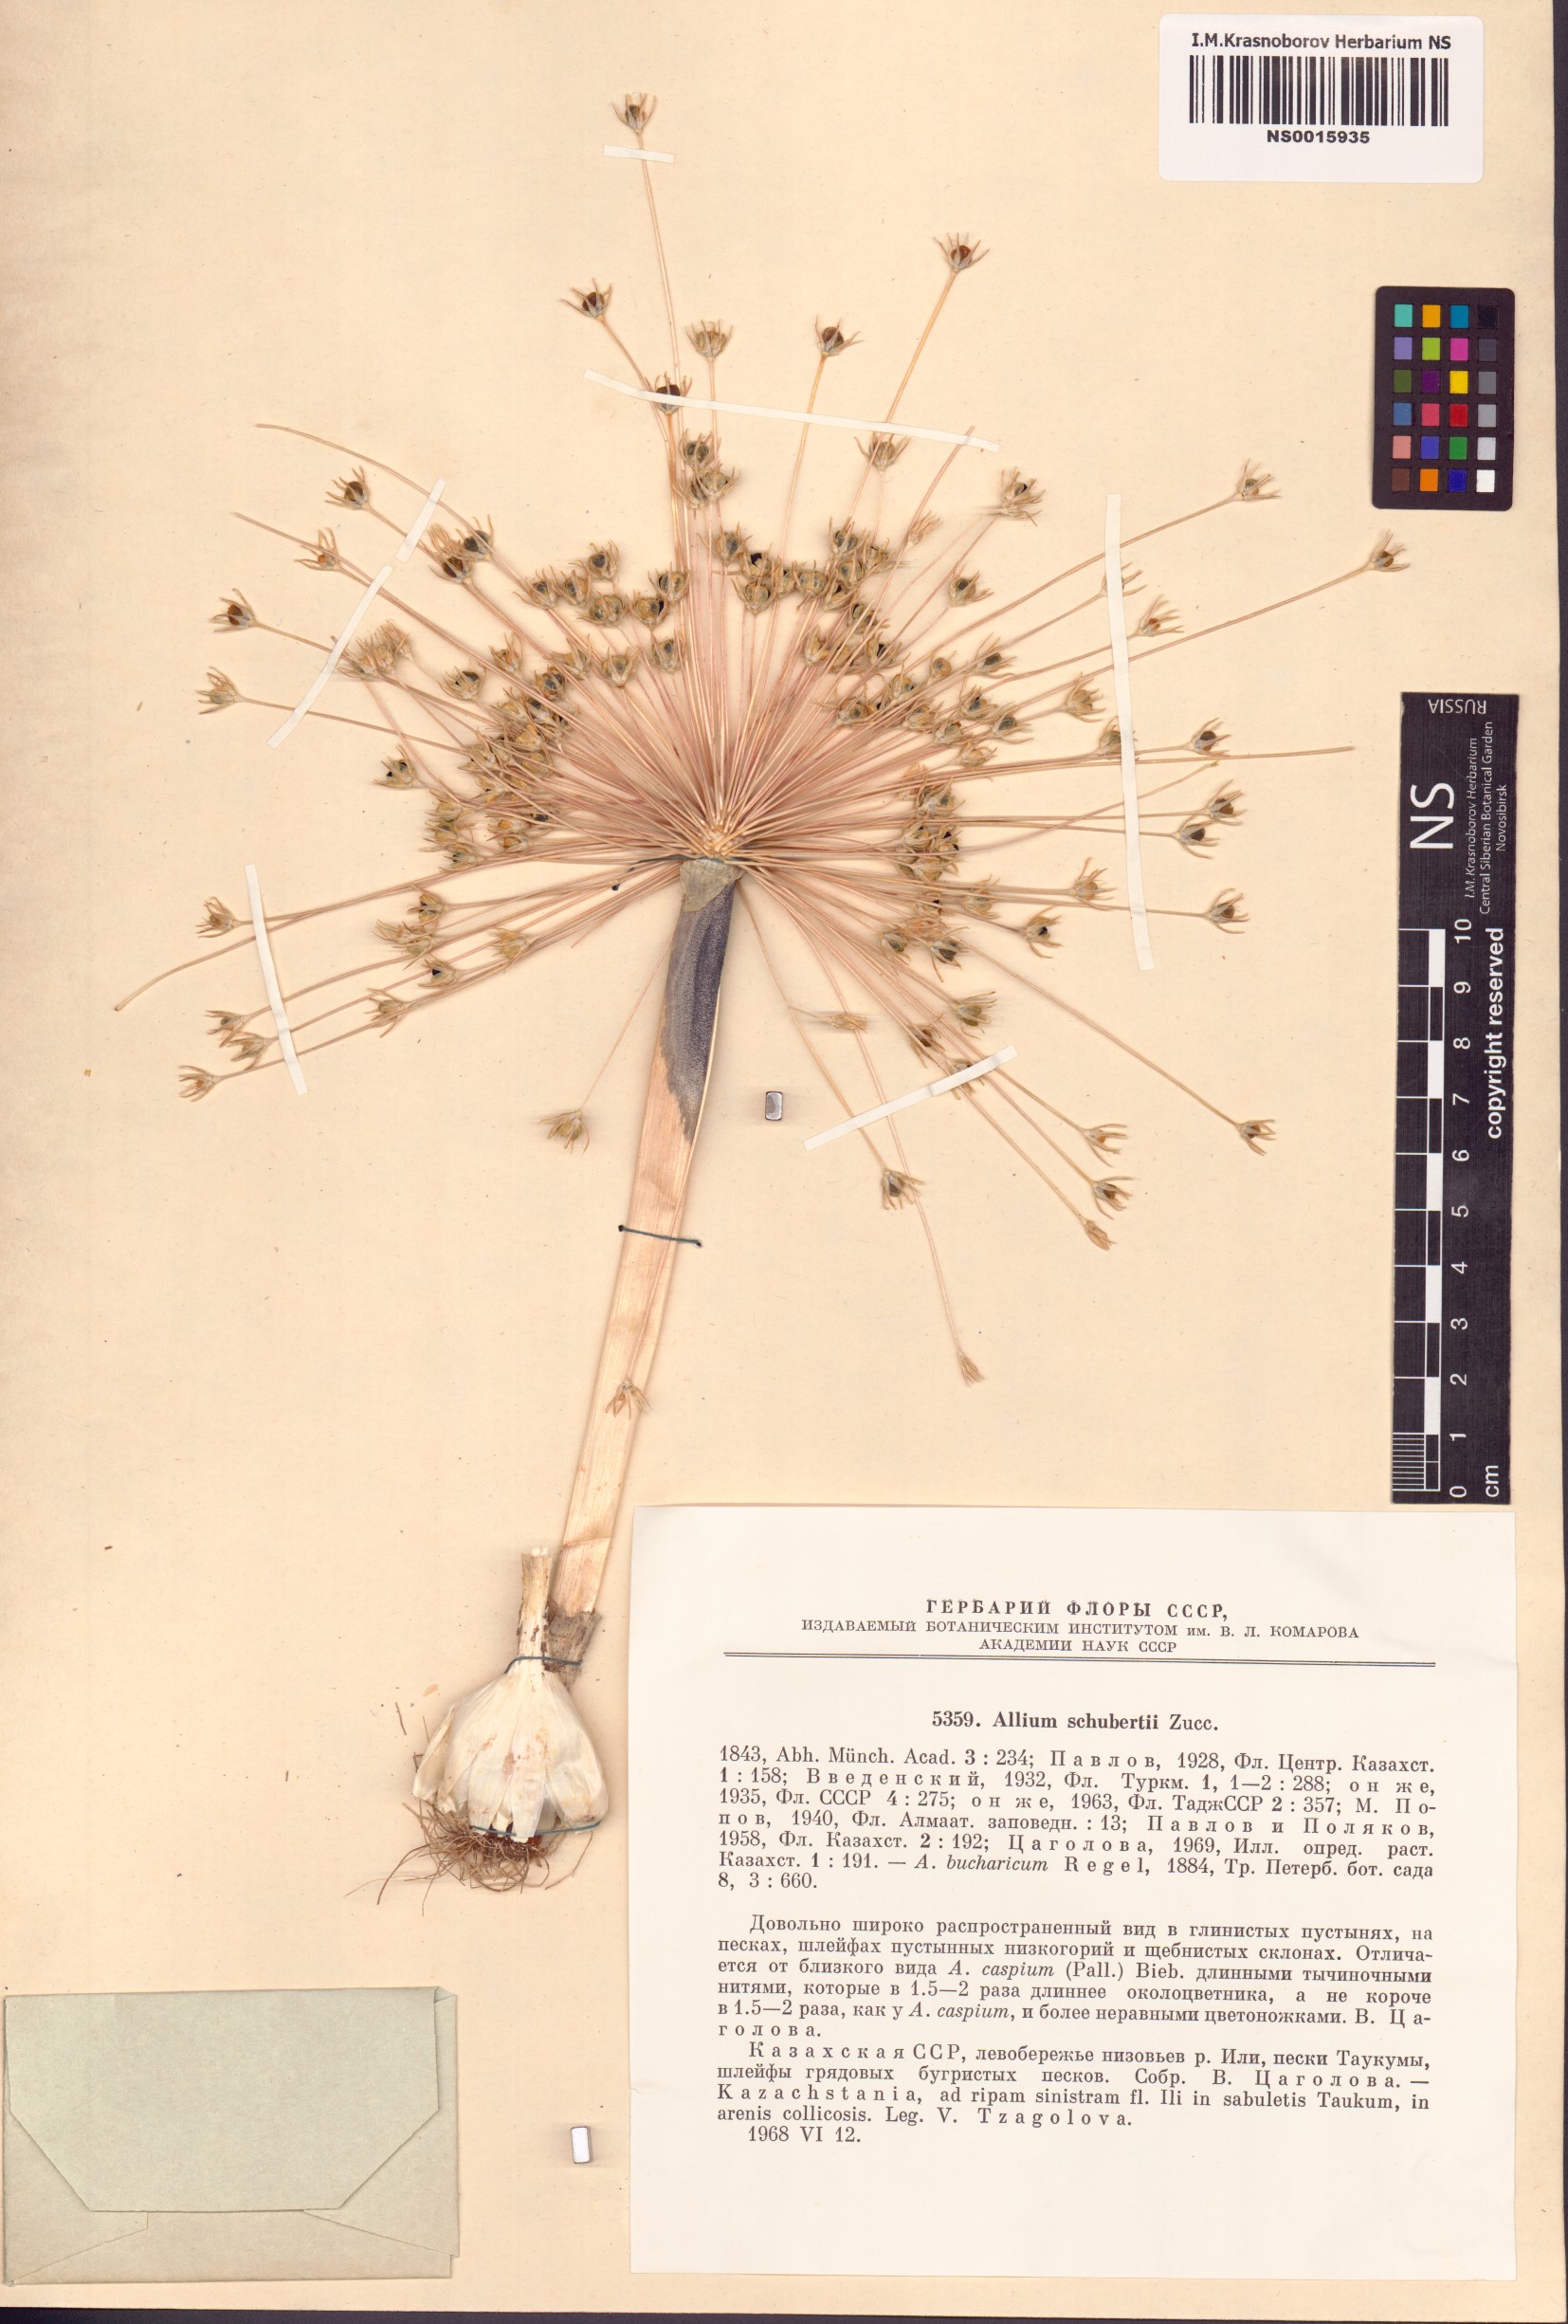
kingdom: Plantae
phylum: Tracheophyta
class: Liliopsida
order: Asparagales
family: Amaryllidaceae
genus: Allium
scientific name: Allium schubertii
